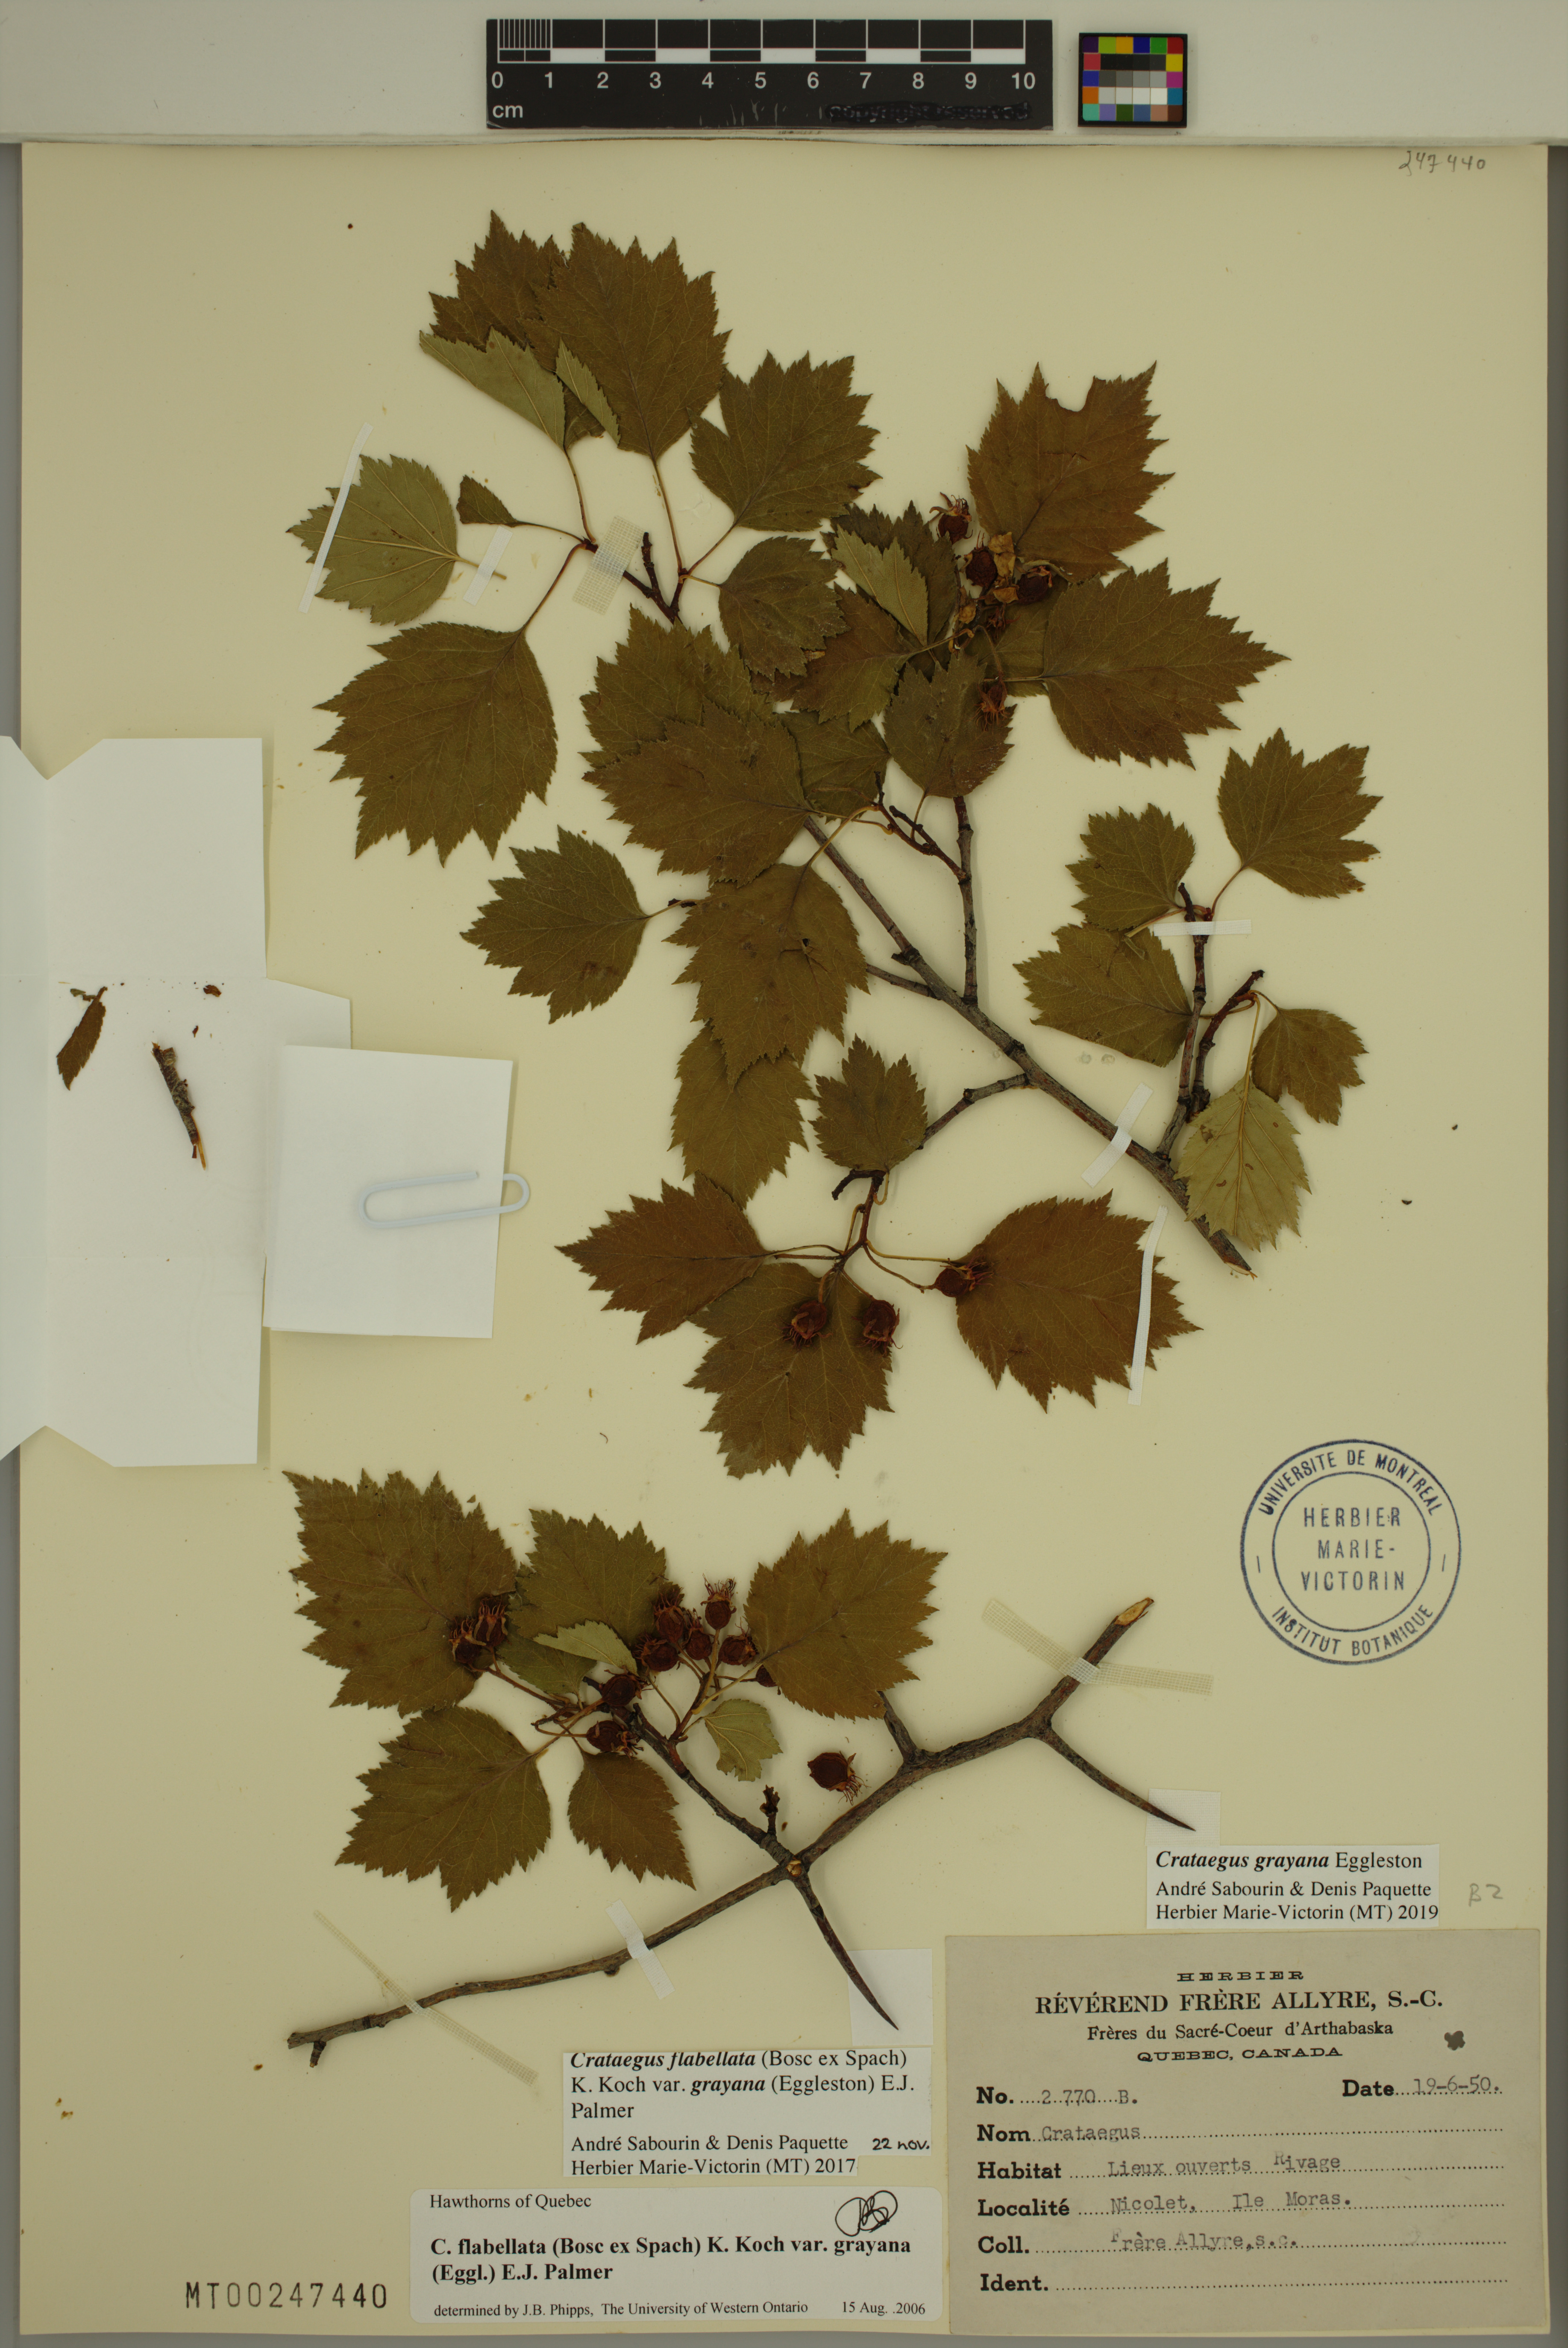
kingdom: Plantae
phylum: Tracheophyta
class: Magnoliopsida
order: Rosales
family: Rosaceae
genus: Crataegus
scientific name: Crataegus schuettei
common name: Schuette's hawthorn
